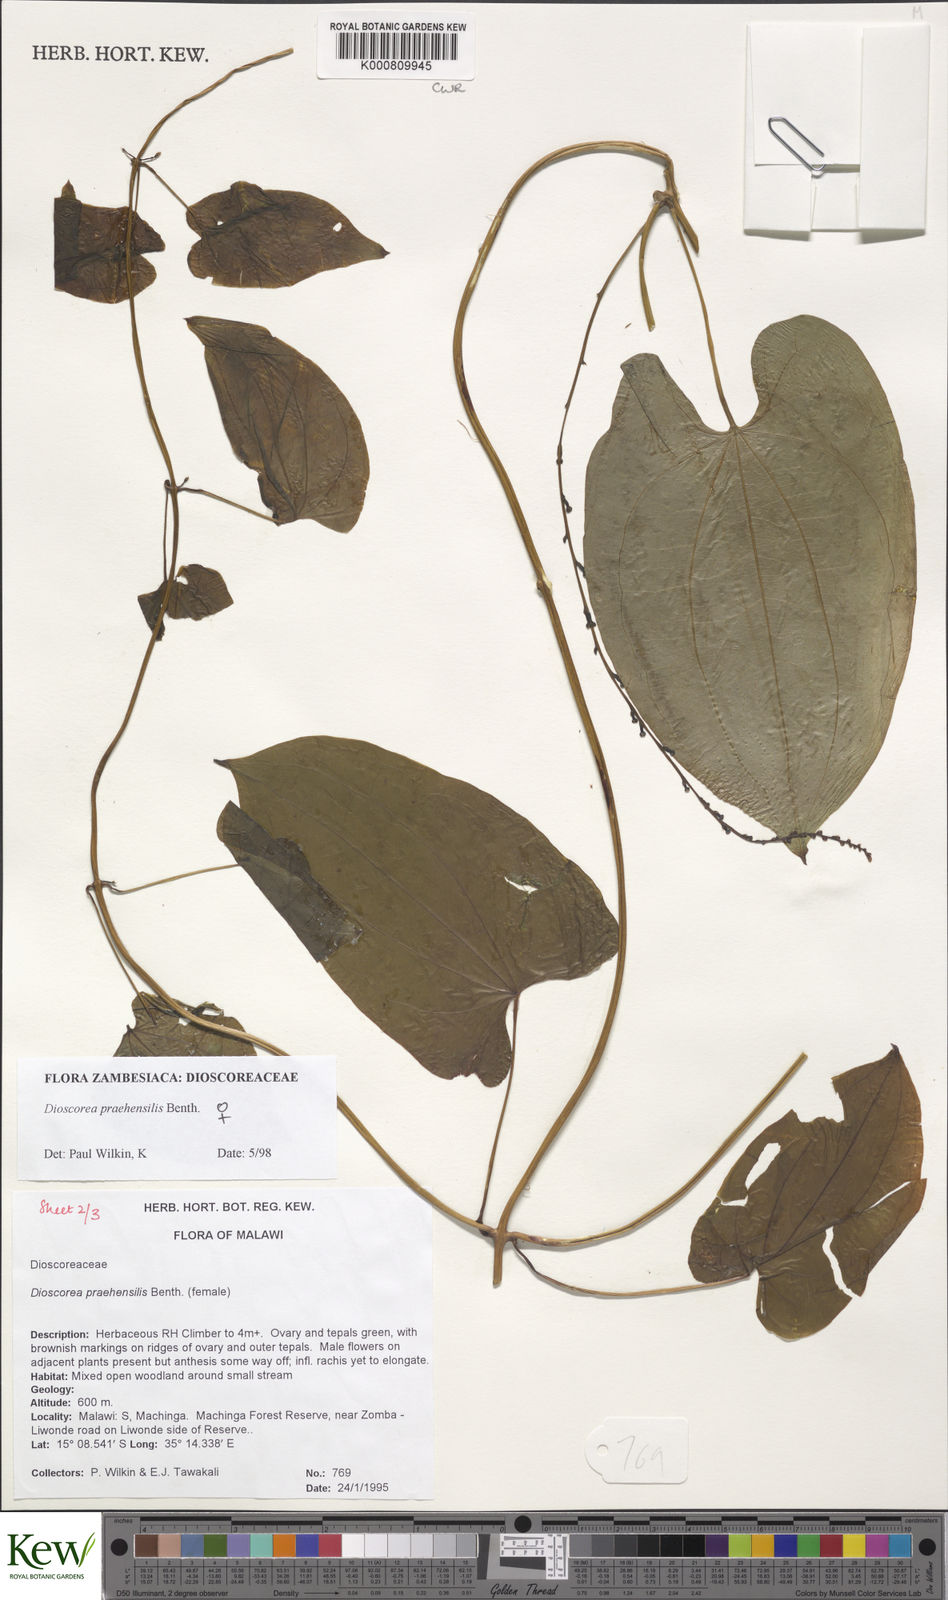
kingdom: Plantae
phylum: Tracheophyta
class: Liliopsida
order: Dioscoreales
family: Dioscoreaceae
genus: Dioscorea
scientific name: Dioscorea praehensilis
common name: Bush yam
